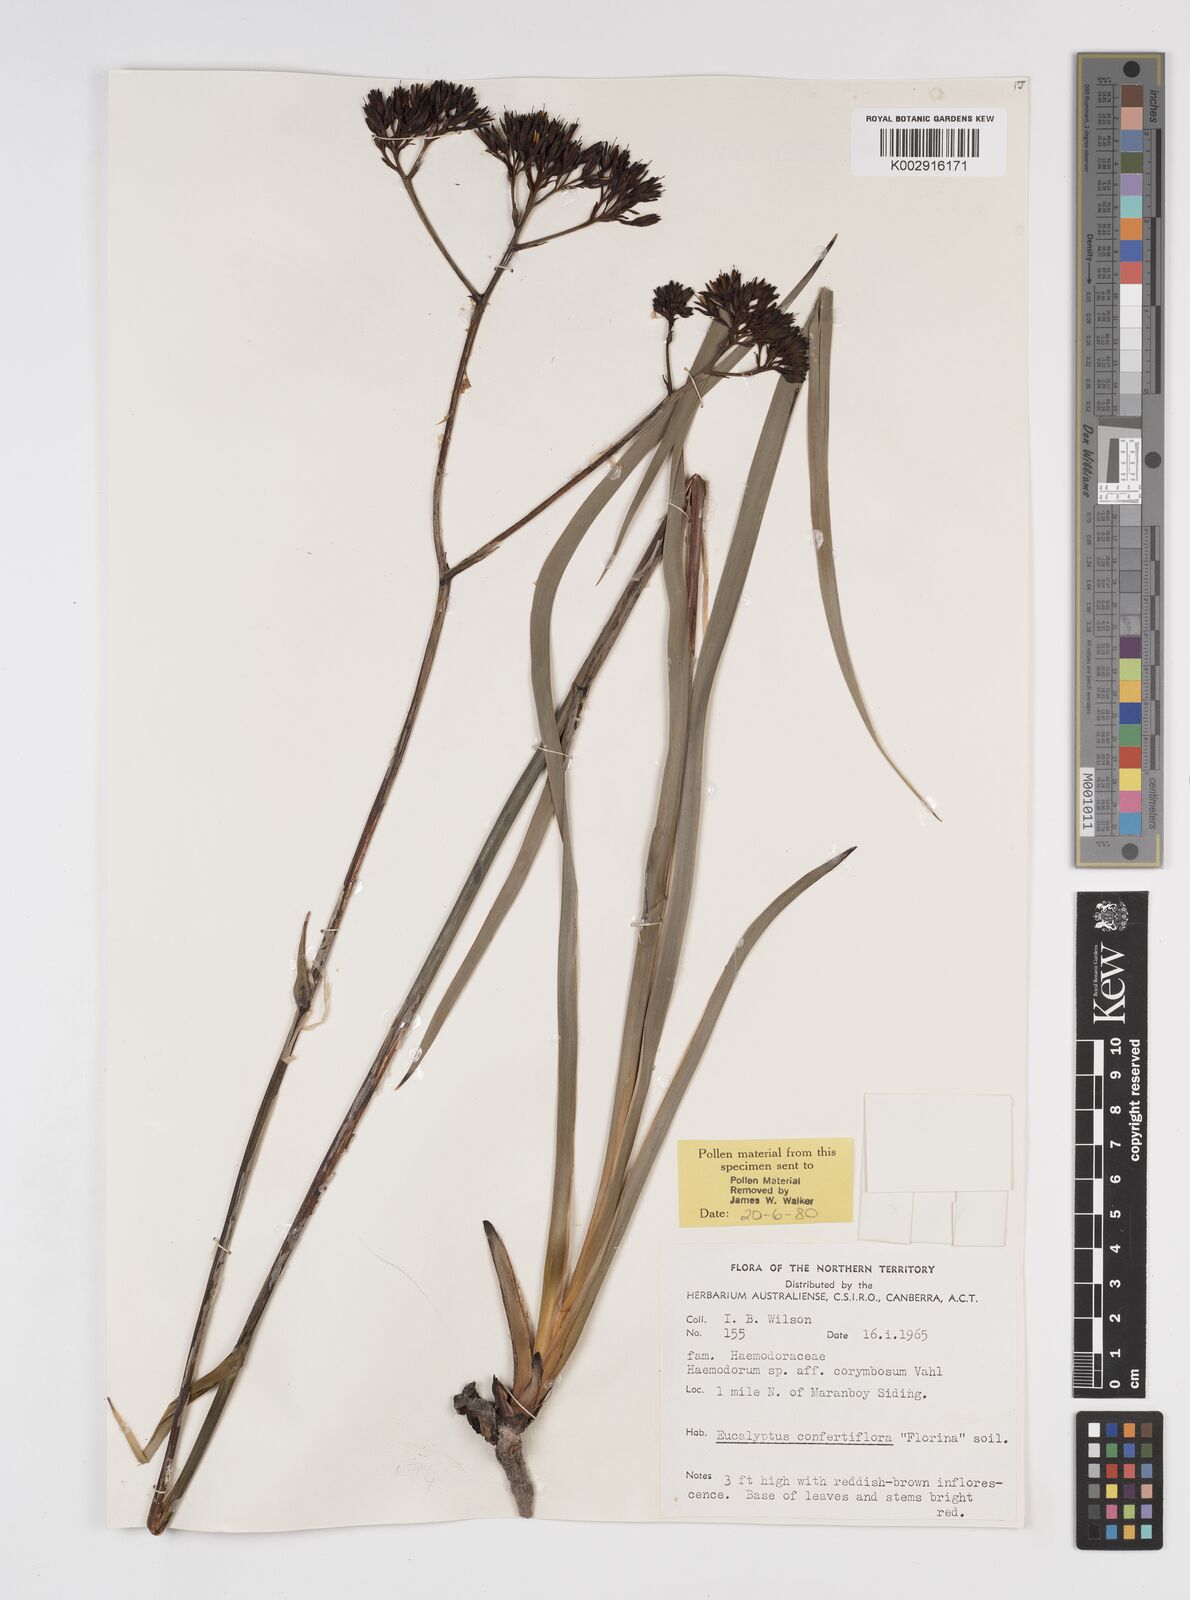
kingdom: Plantae
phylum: Tracheophyta
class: Liliopsida
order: Commelinales
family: Haemodoraceae
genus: Haemodorum
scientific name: Haemodorum corymbosum
